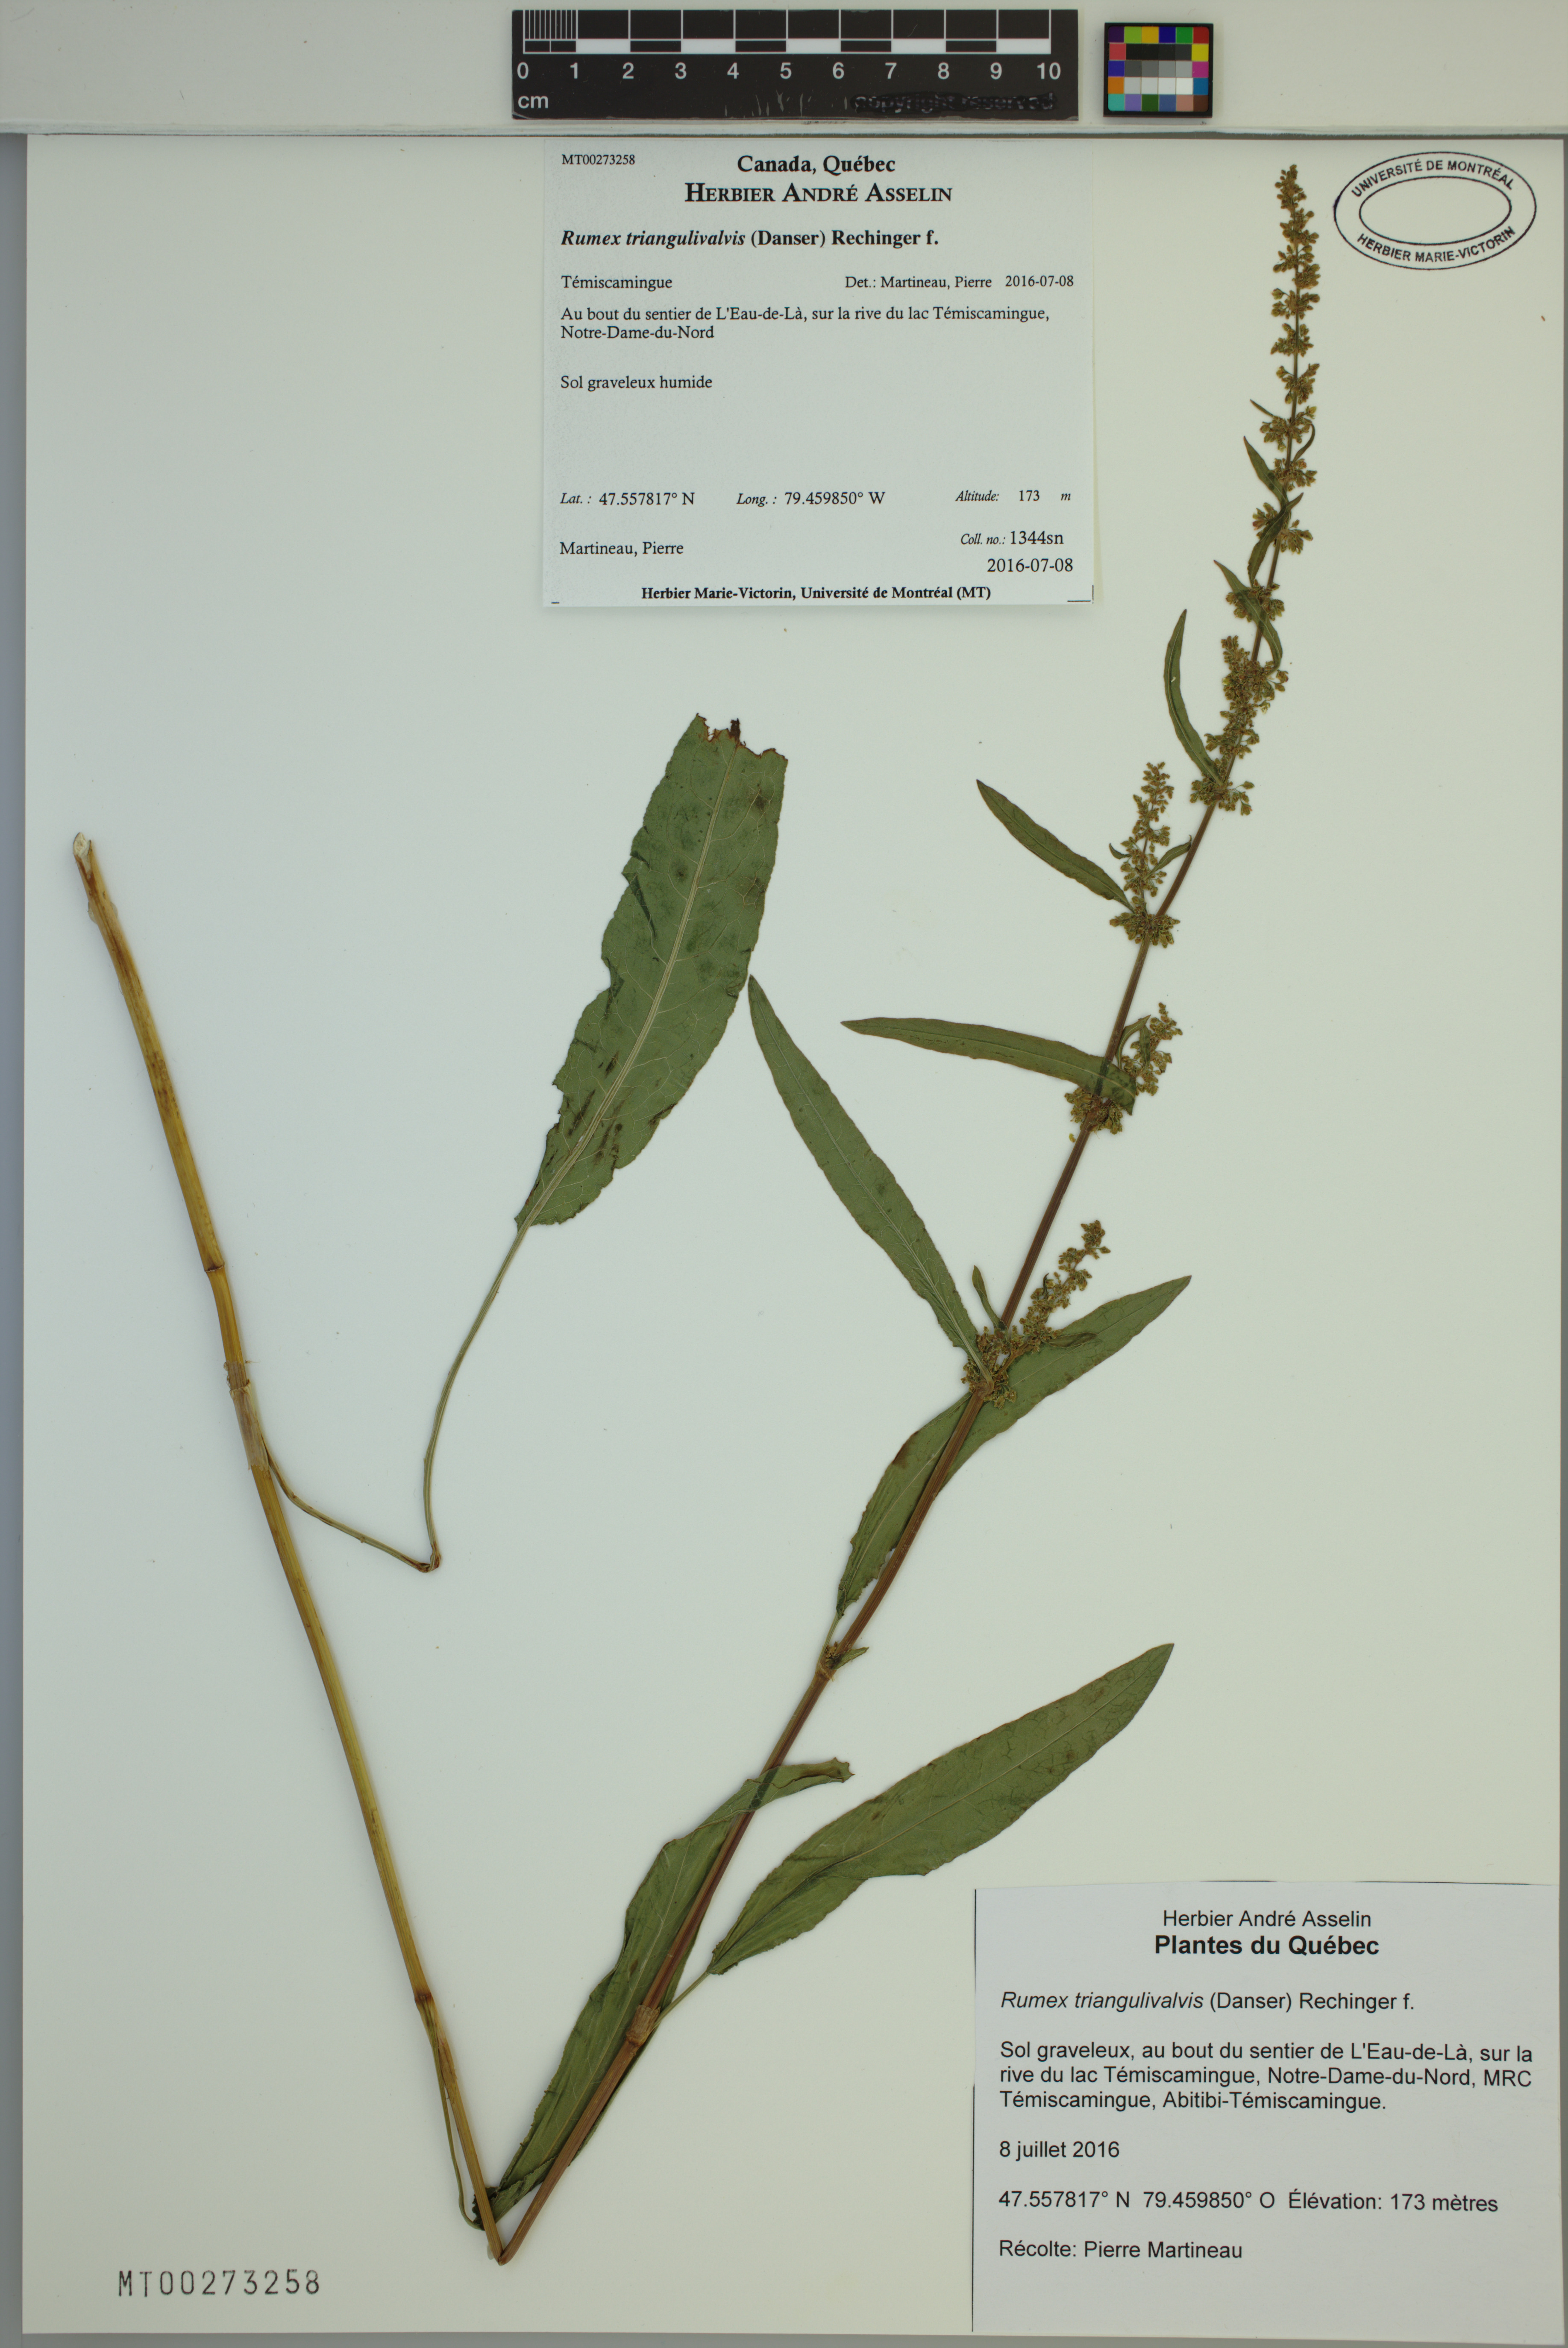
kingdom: Plantae
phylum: Tracheophyta
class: Magnoliopsida
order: Caryophyllales
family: Polygonaceae
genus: Rumex
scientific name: Rumex triangulivalvis
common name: Triangular-valve dock
